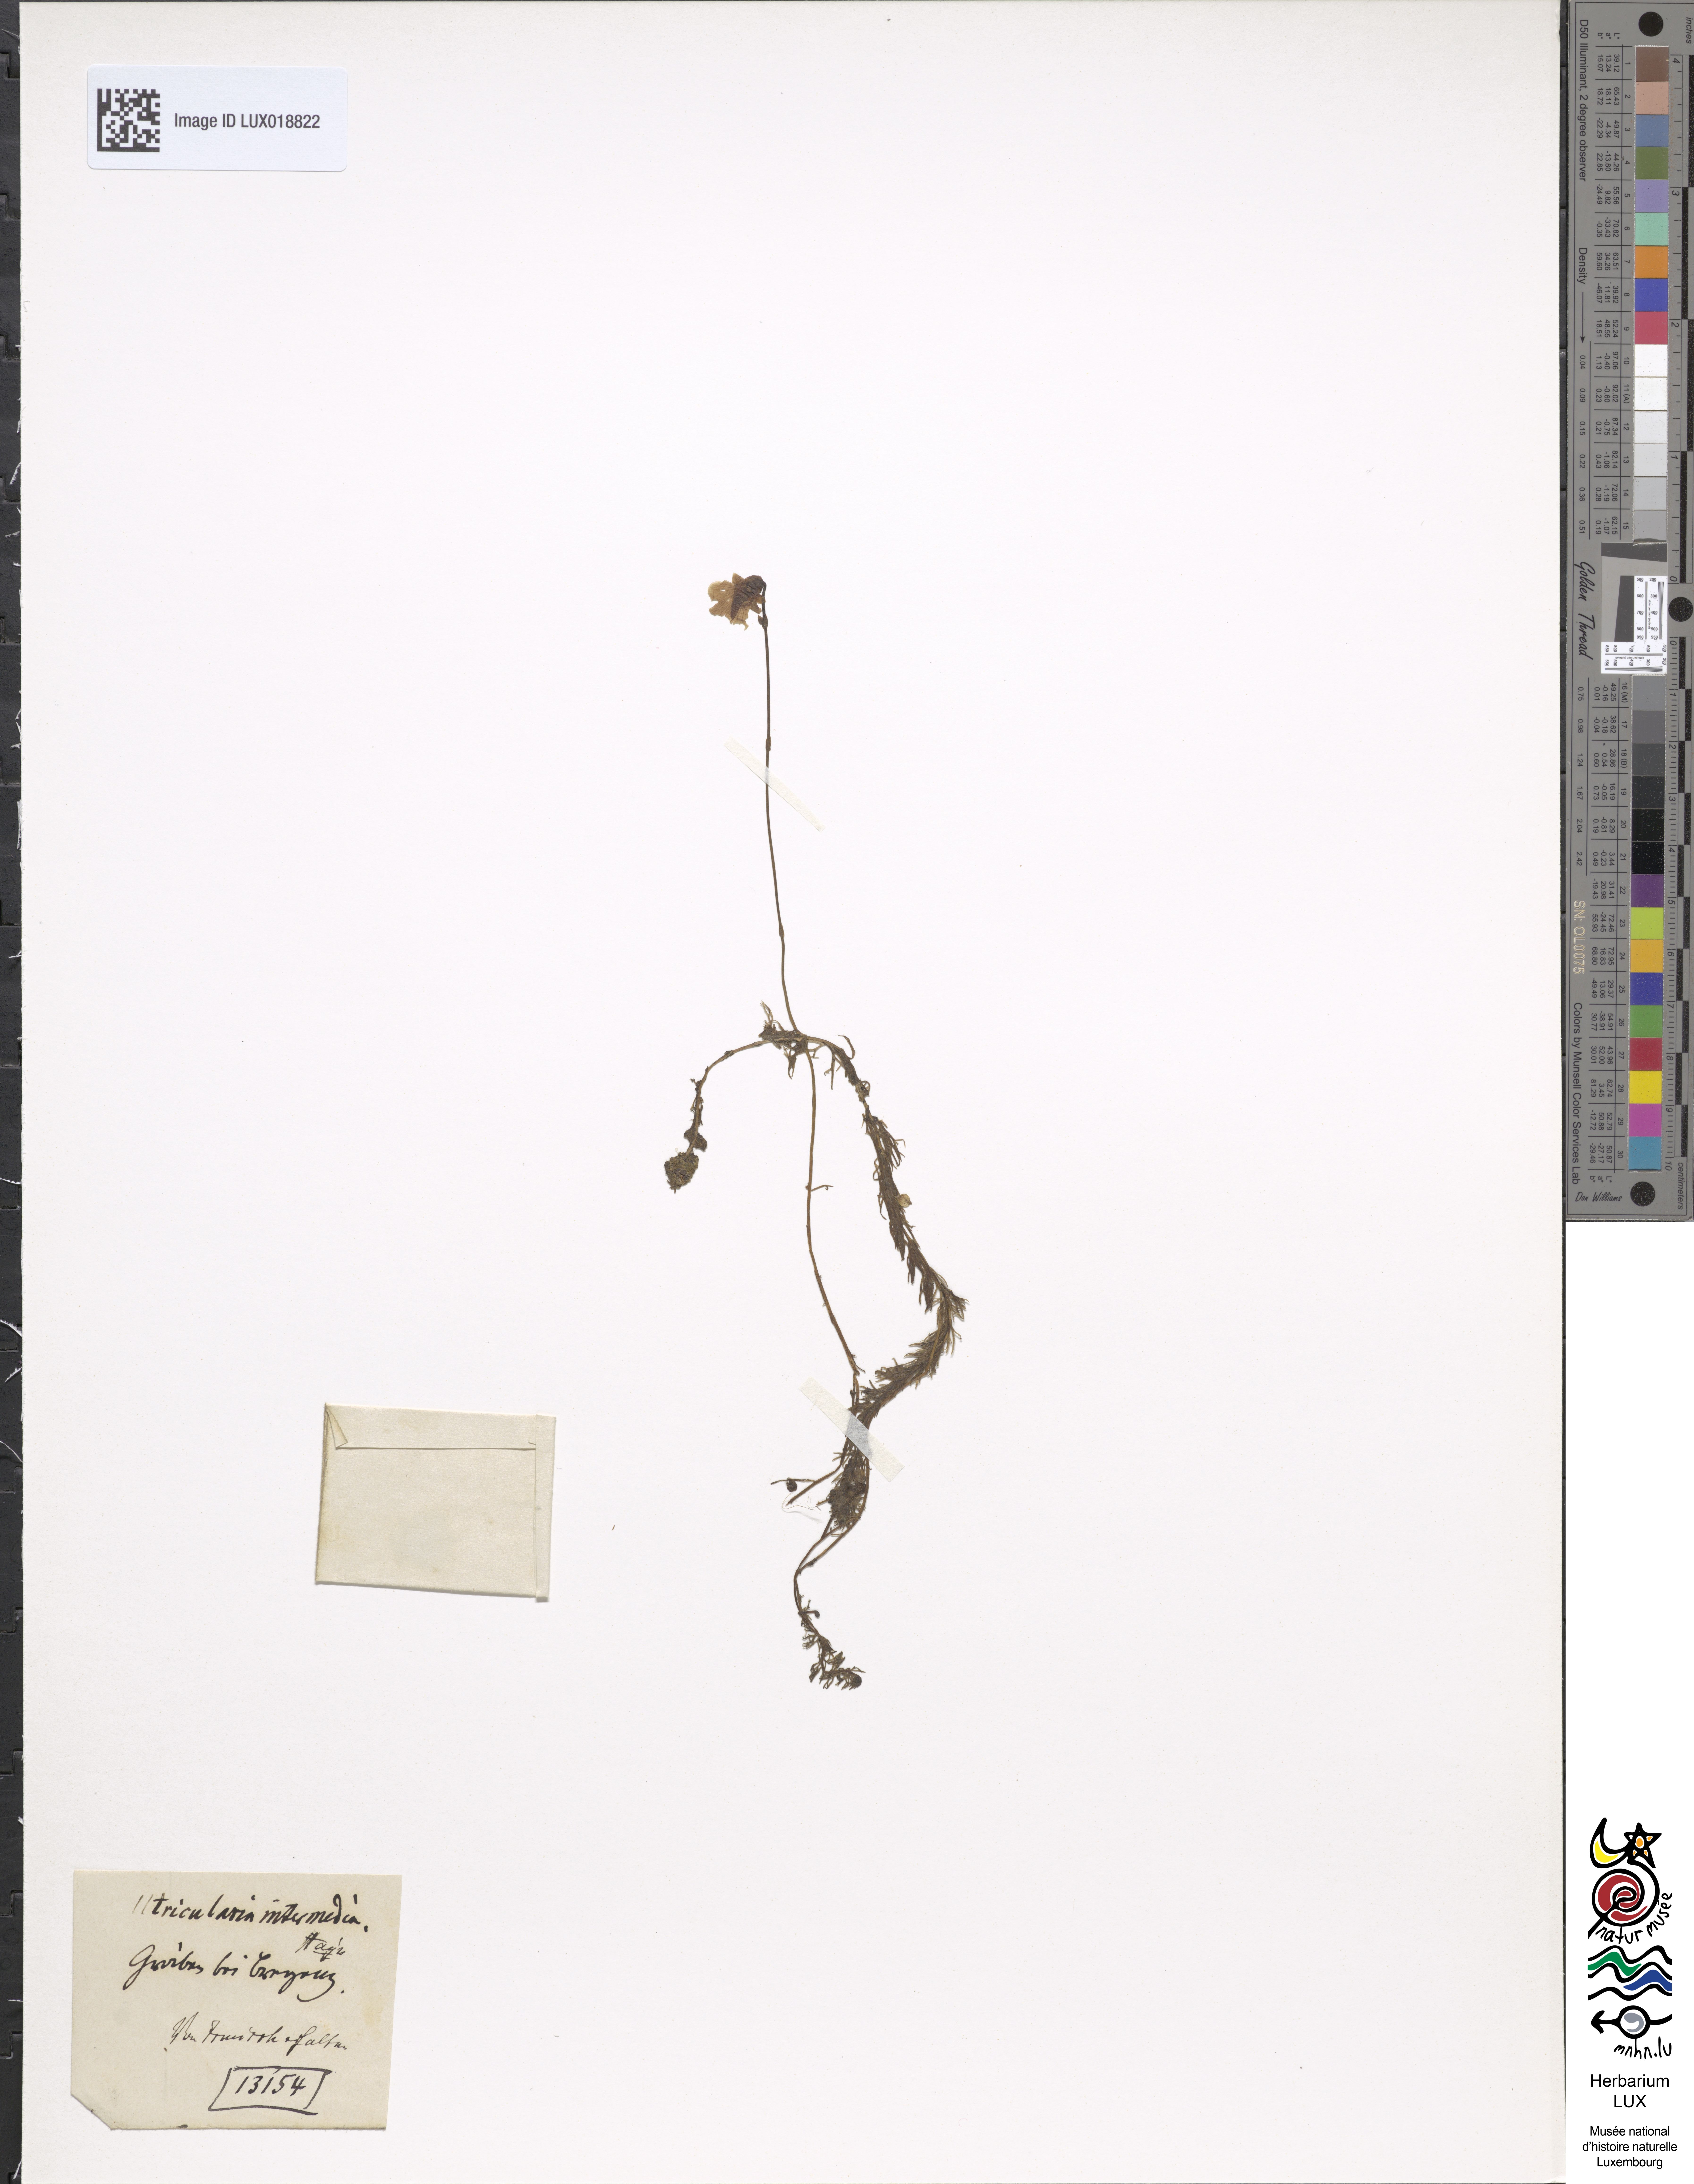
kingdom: Plantae
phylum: Tracheophyta
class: Magnoliopsida
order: Lamiales
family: Lentibulariaceae
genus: Utricularia
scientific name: Utricularia intermedia
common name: Intermediate bladderwort
